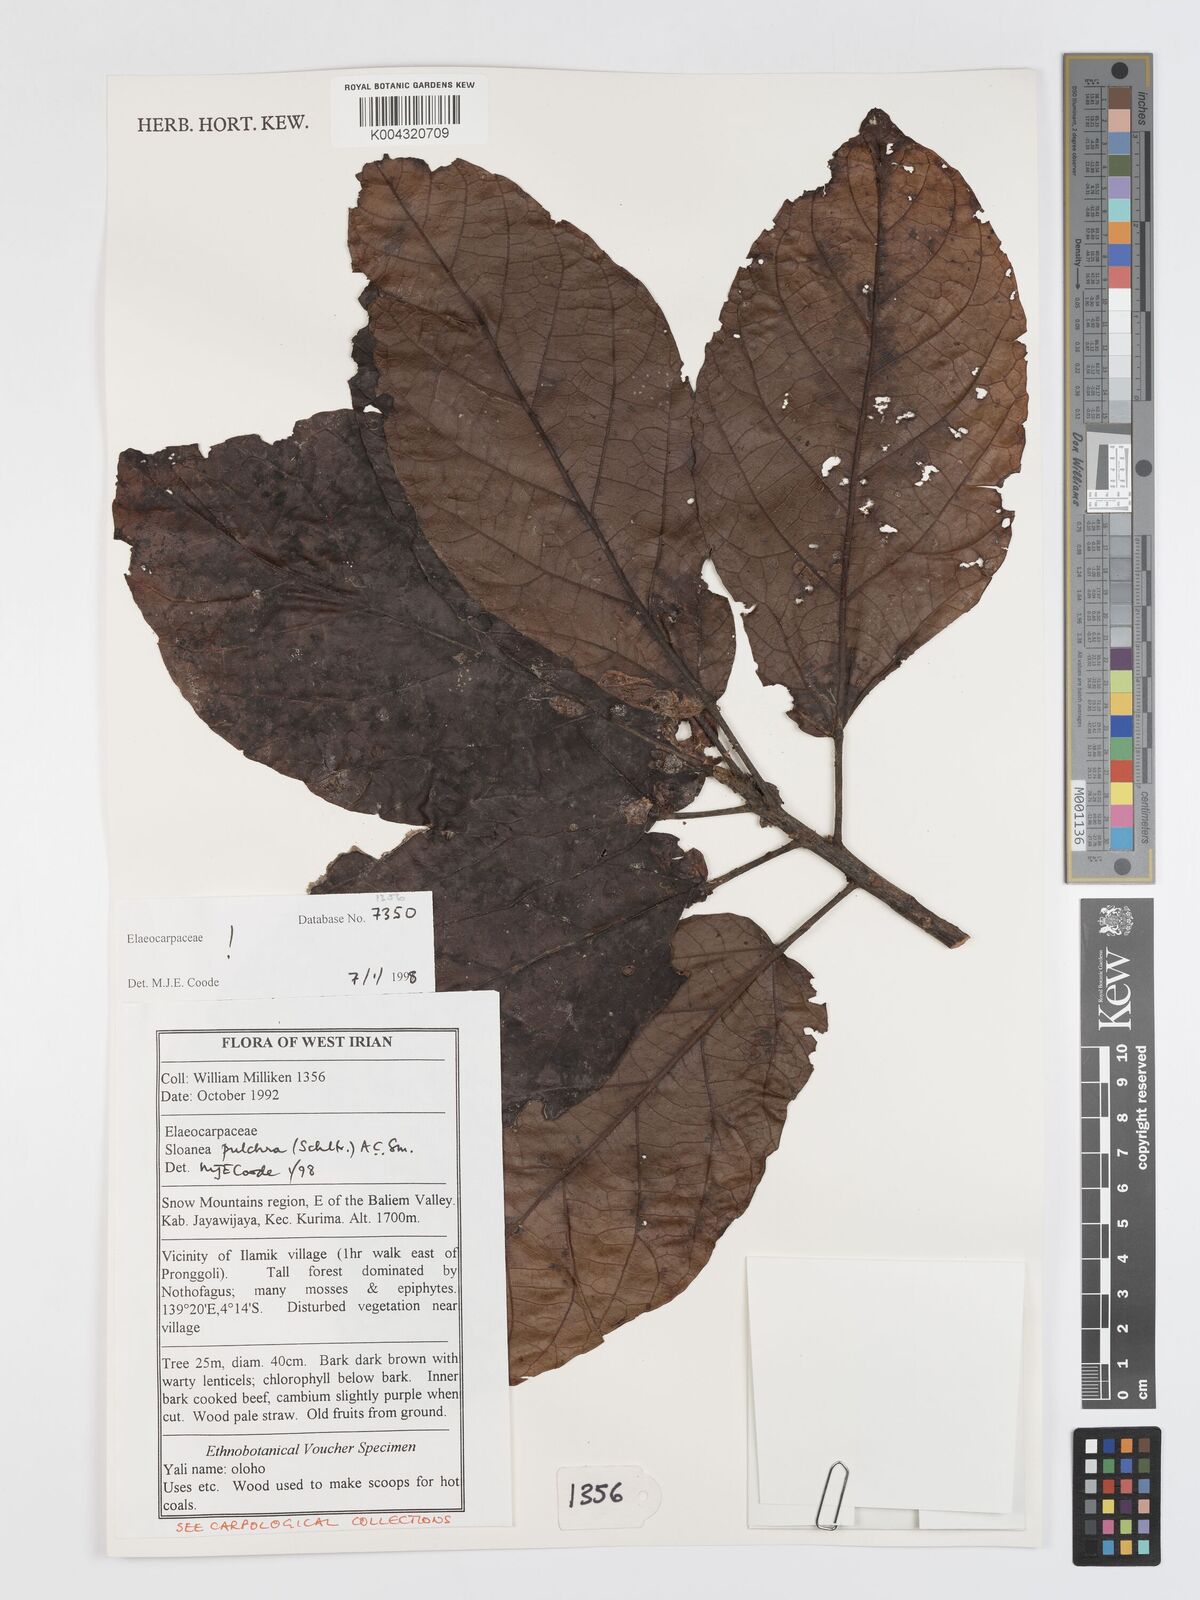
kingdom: Plantae
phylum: Tracheophyta
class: Magnoliopsida
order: Oxalidales
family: Elaeocarpaceae
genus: Sloanea
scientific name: Sloanea pulchra
